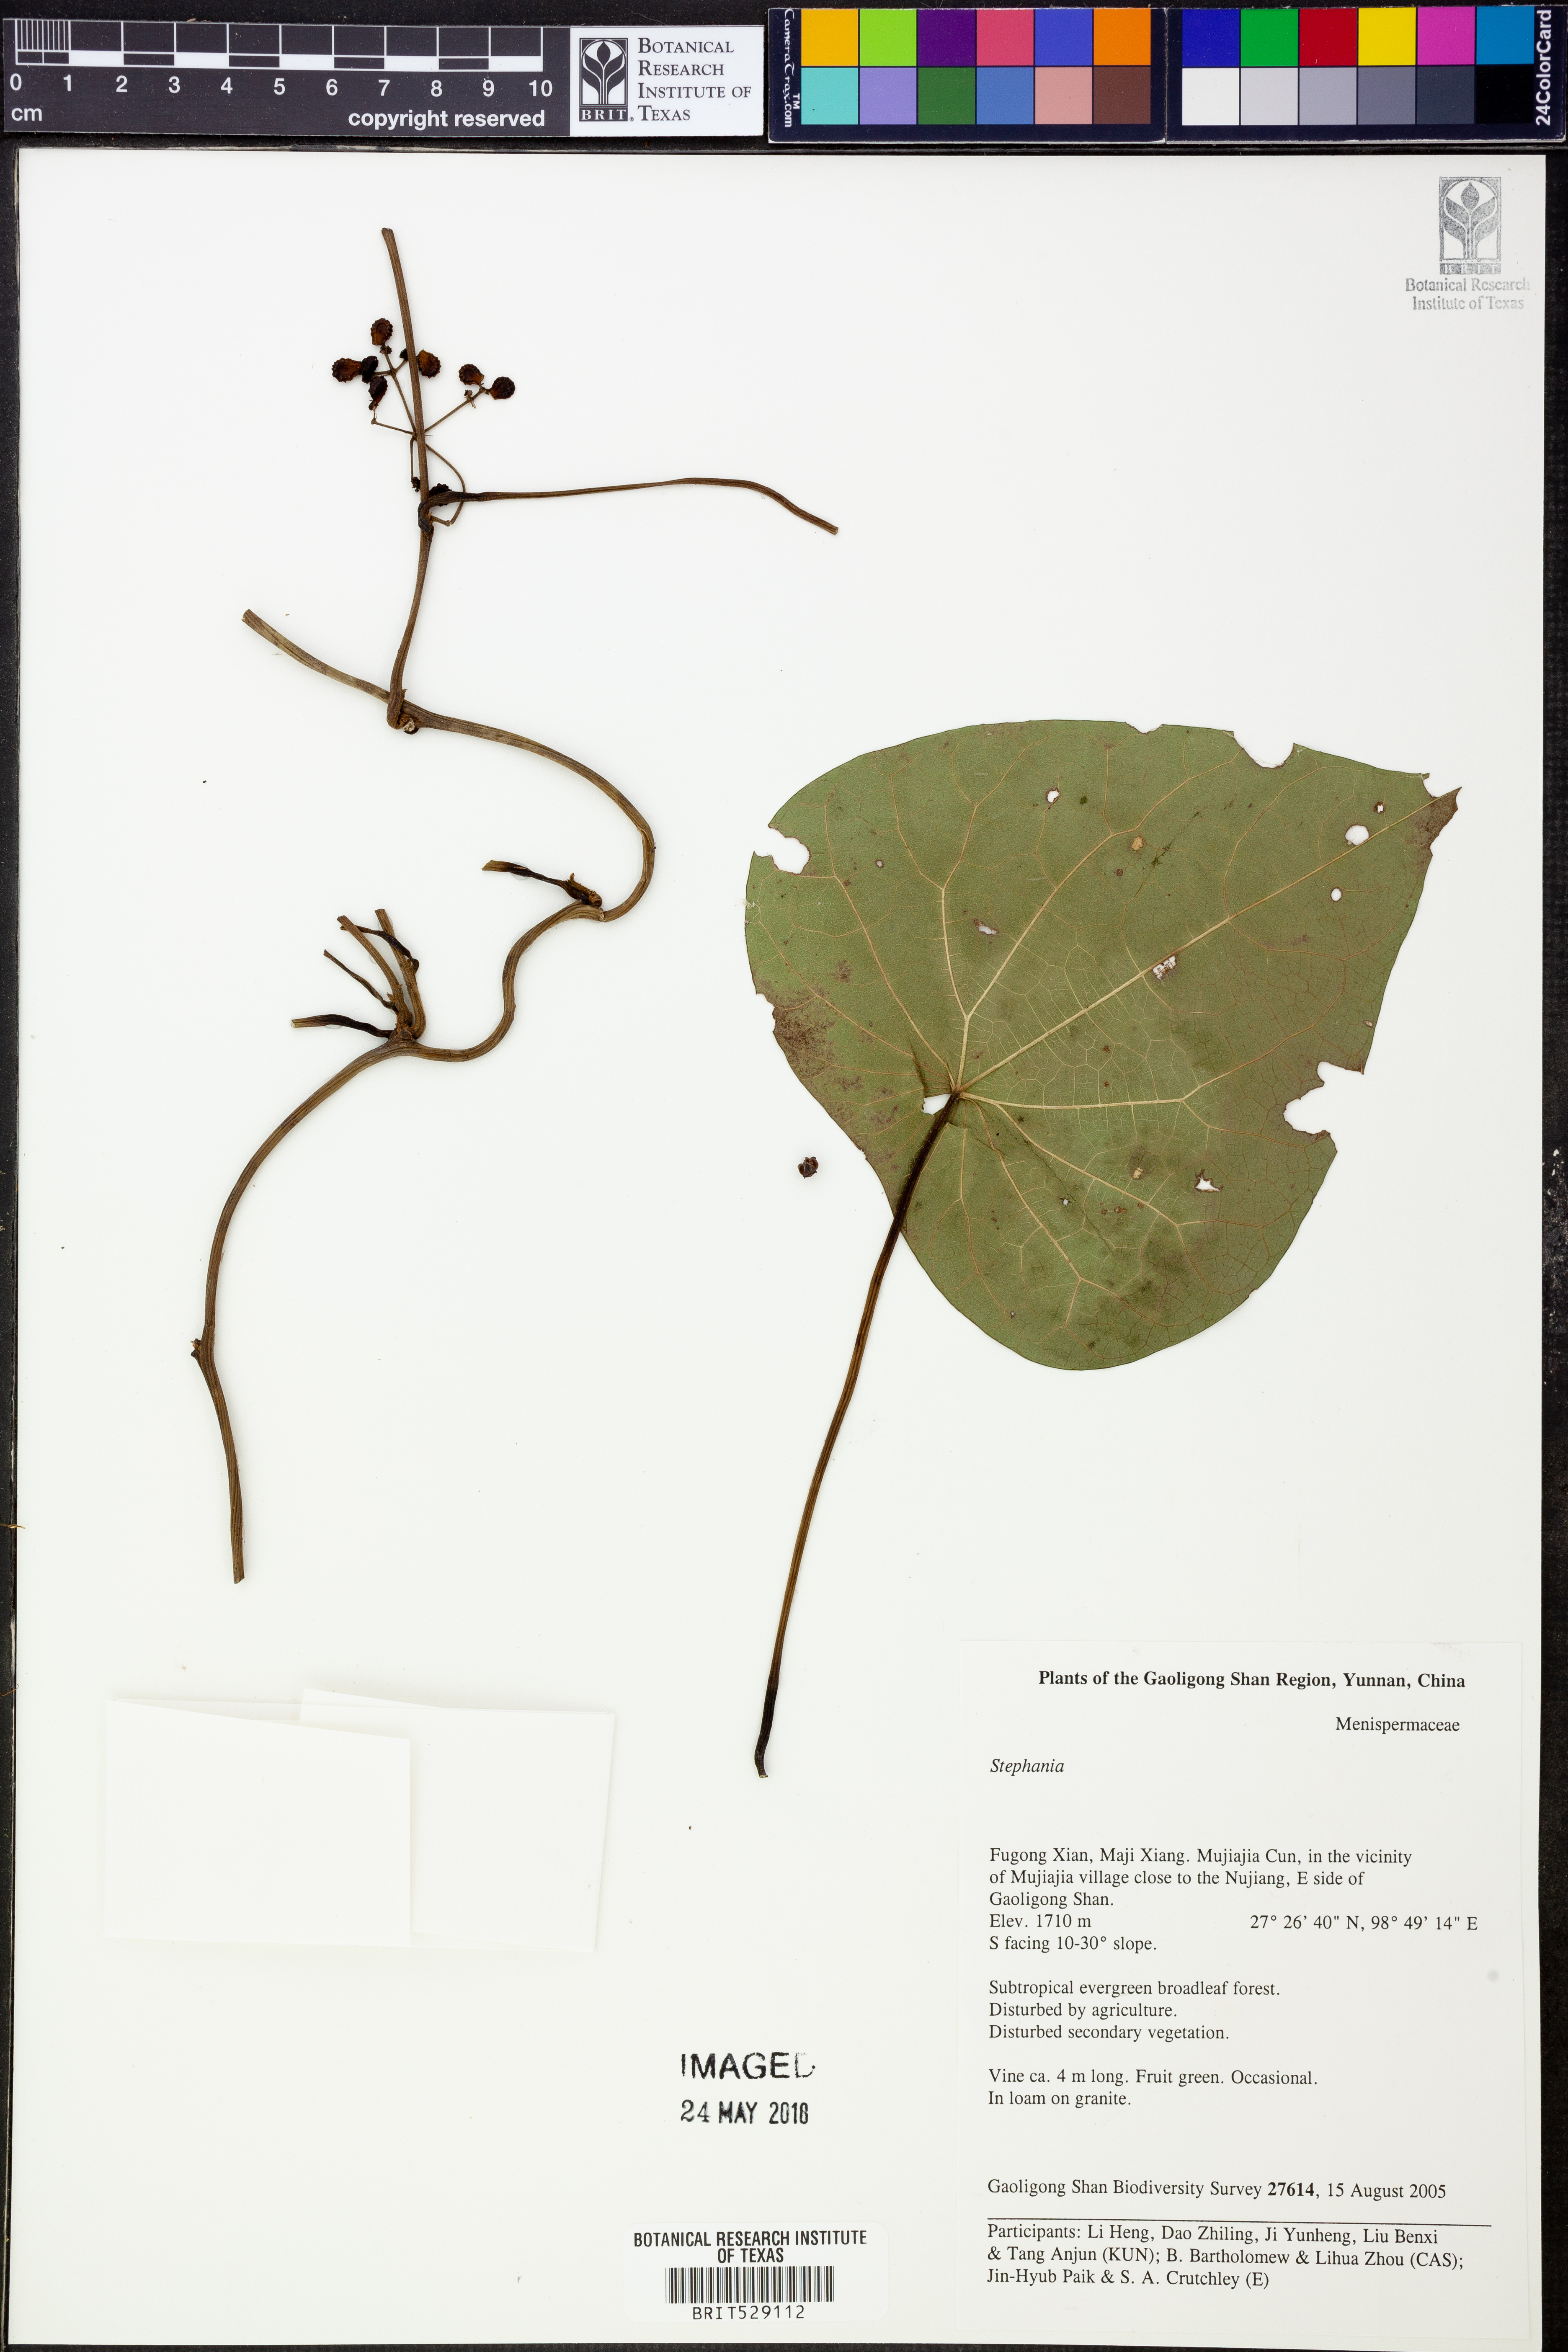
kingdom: Plantae
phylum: Tracheophyta
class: Magnoliopsida
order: Ranunculales
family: Menispermaceae
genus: Stephania
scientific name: Stephania
